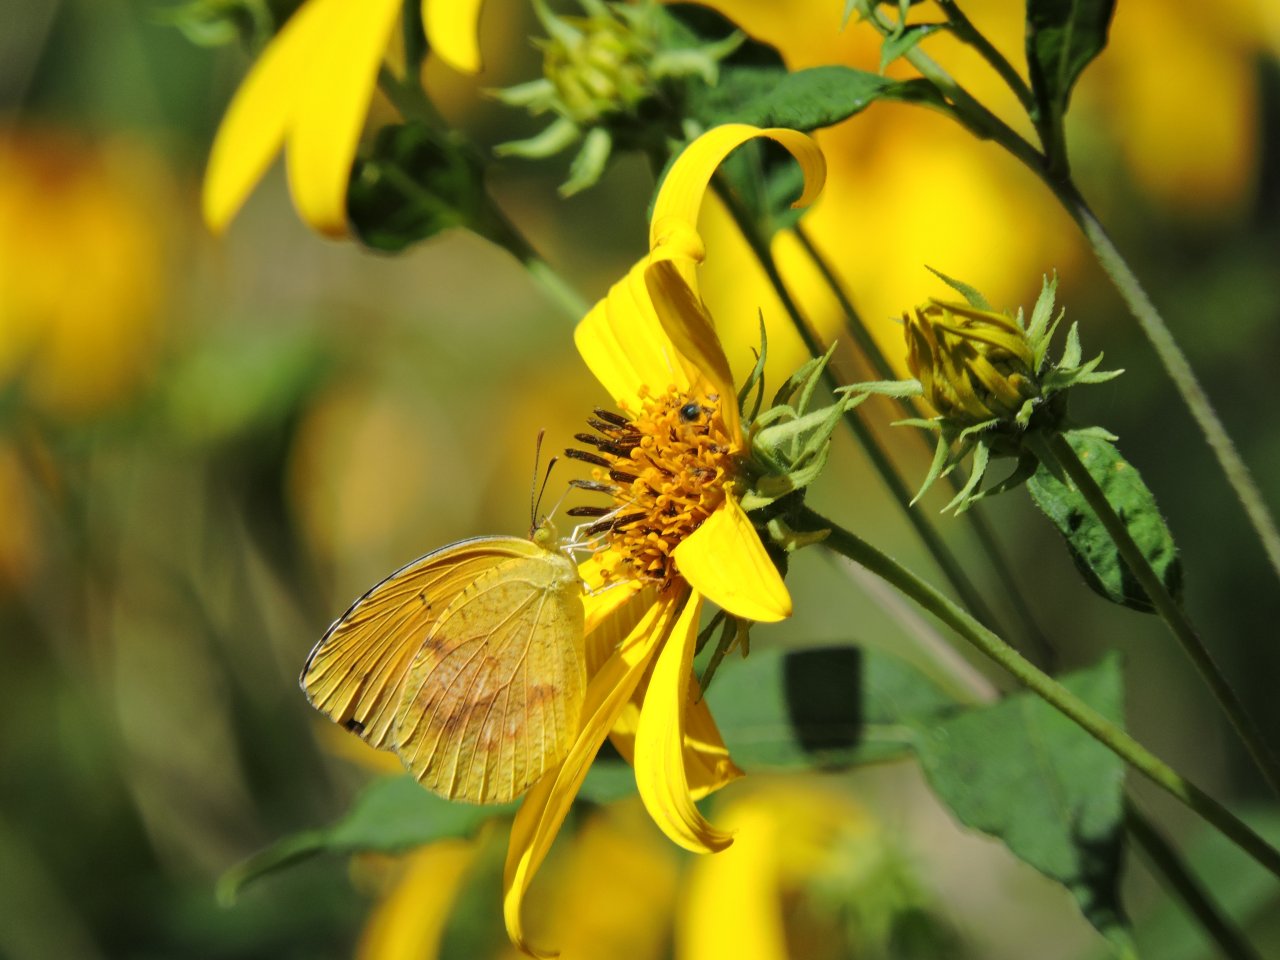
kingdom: Animalia
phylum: Arthropoda
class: Insecta
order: Lepidoptera
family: Pieridae
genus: Abaeis
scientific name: Abaeis nicippe
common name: Sleepy Orange
